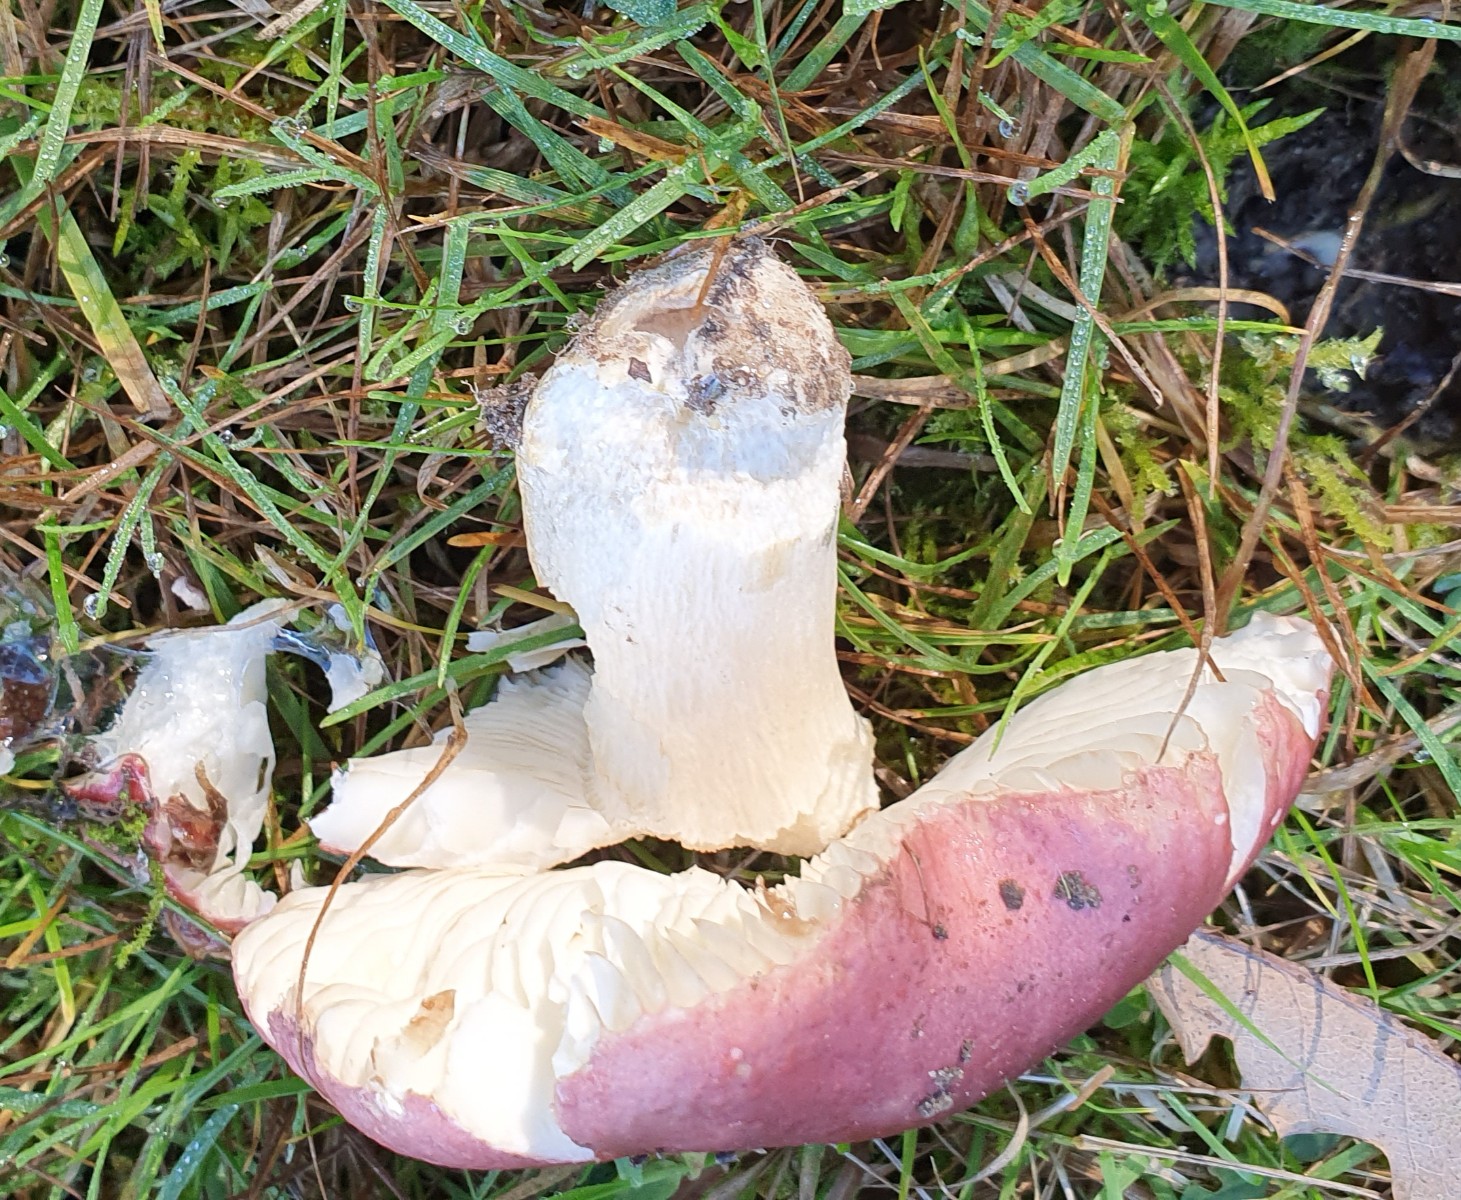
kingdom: Fungi
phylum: Basidiomycota
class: Agaricomycetes
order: Russulales
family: Russulaceae
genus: Russula
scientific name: Russula atropurpurea
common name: purpurbroget skørhat
